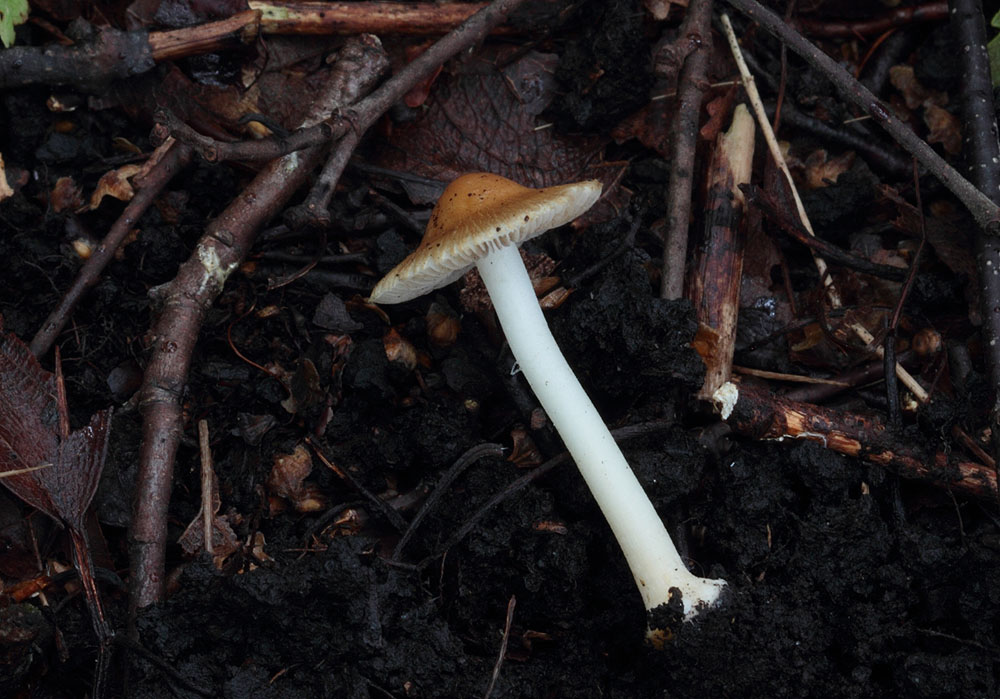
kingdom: Fungi
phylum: Basidiomycota
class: Agaricomycetes
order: Agaricales
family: Inocybaceae
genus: Inocybe
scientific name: Inocybe mixtilis
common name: randknoldet trævlhat
